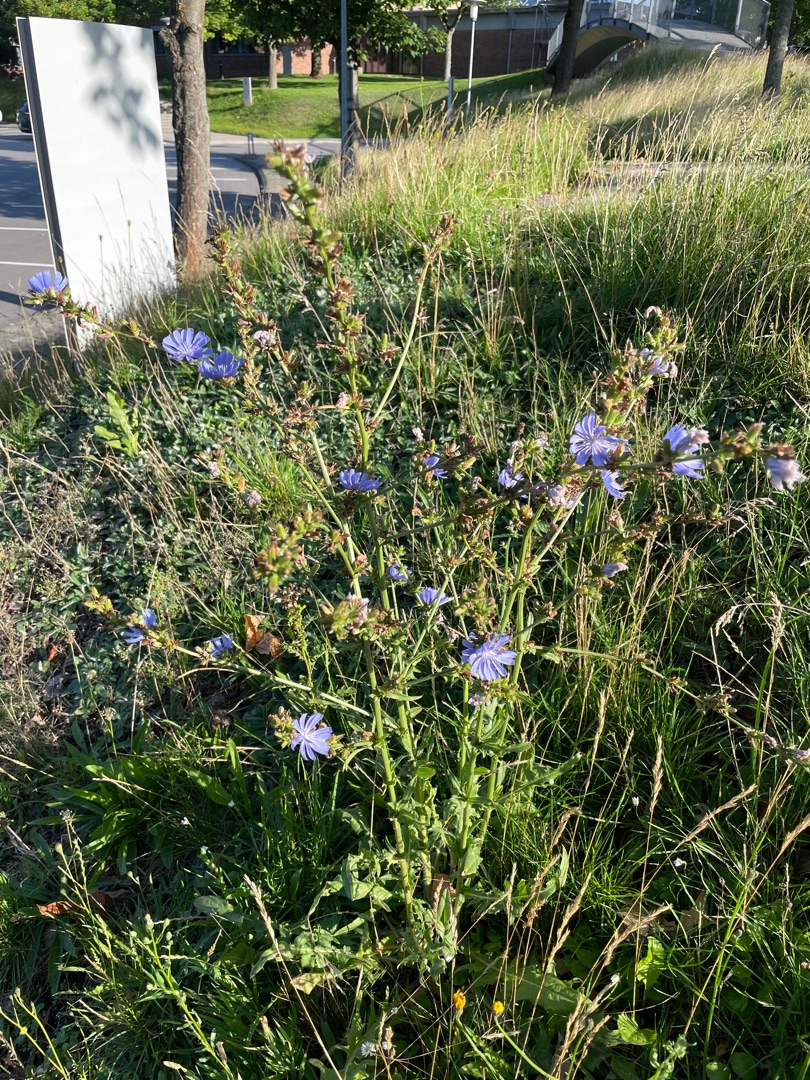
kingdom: Plantae
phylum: Tracheophyta
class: Magnoliopsida
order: Asterales
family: Asteraceae
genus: Cichorium
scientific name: Cichorium intybus
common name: Cikorie
